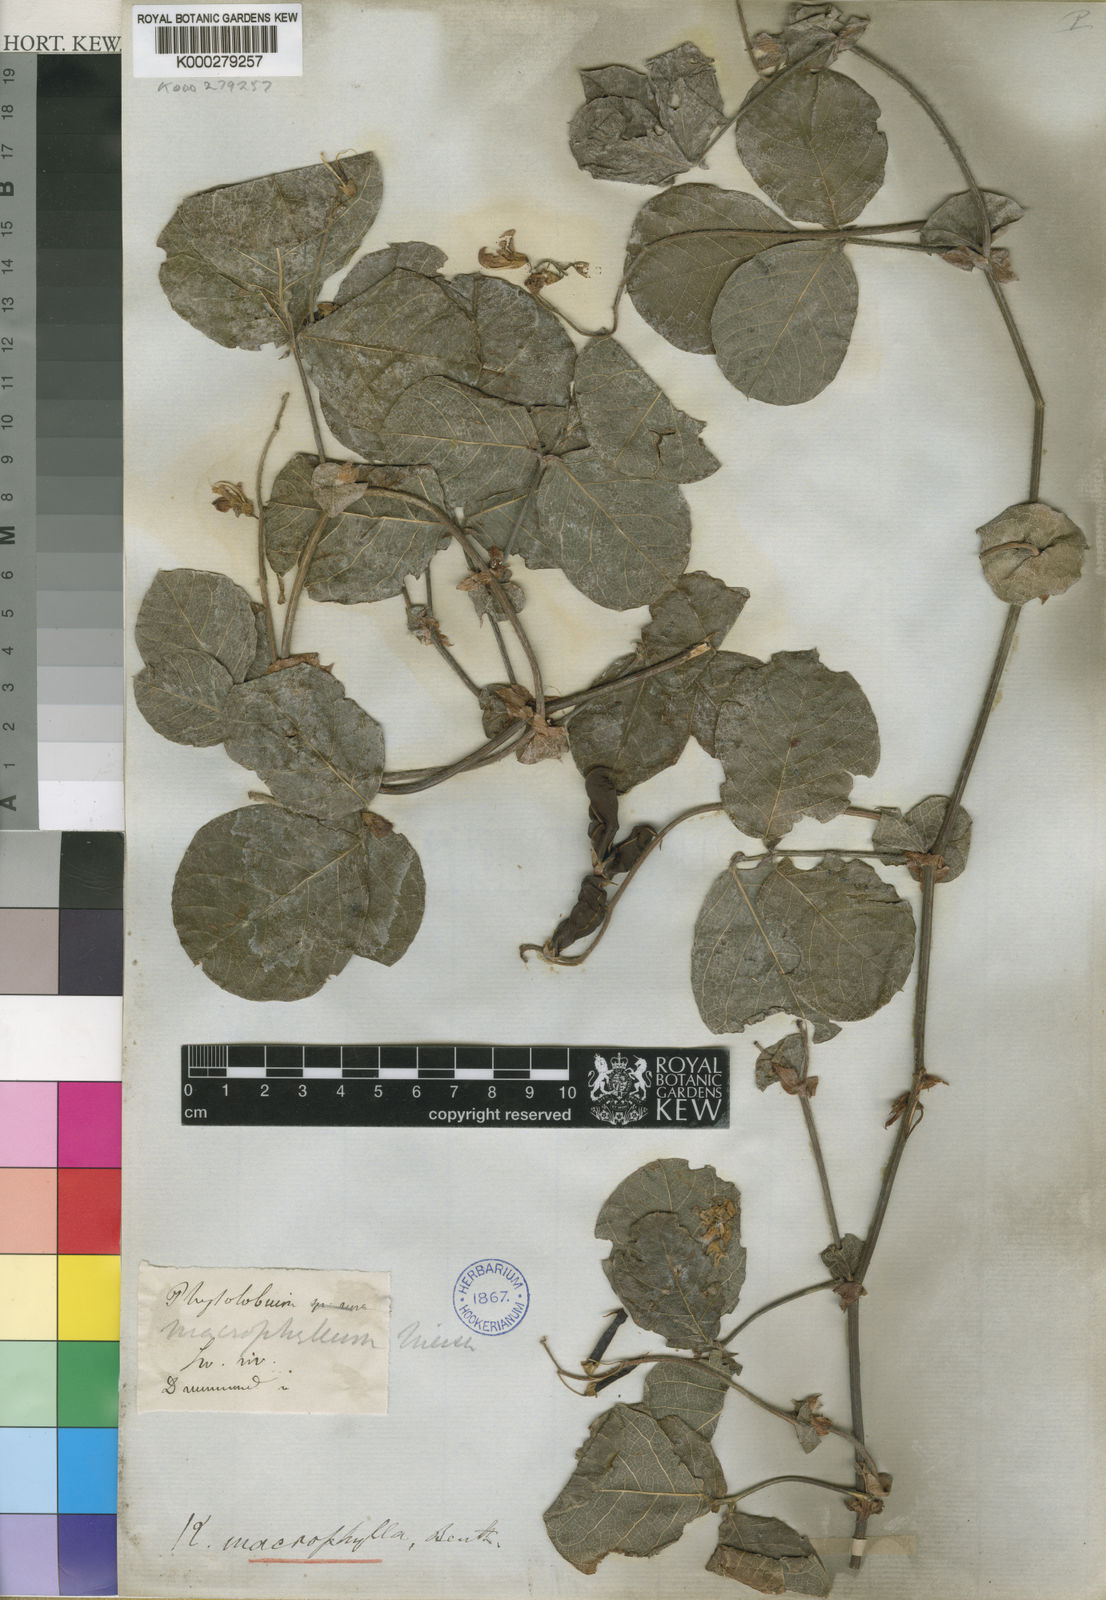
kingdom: Plantae
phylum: Tracheophyta
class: Magnoliopsida
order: Fabales
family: Fabaceae
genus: Kennedia
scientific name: Kennedia
